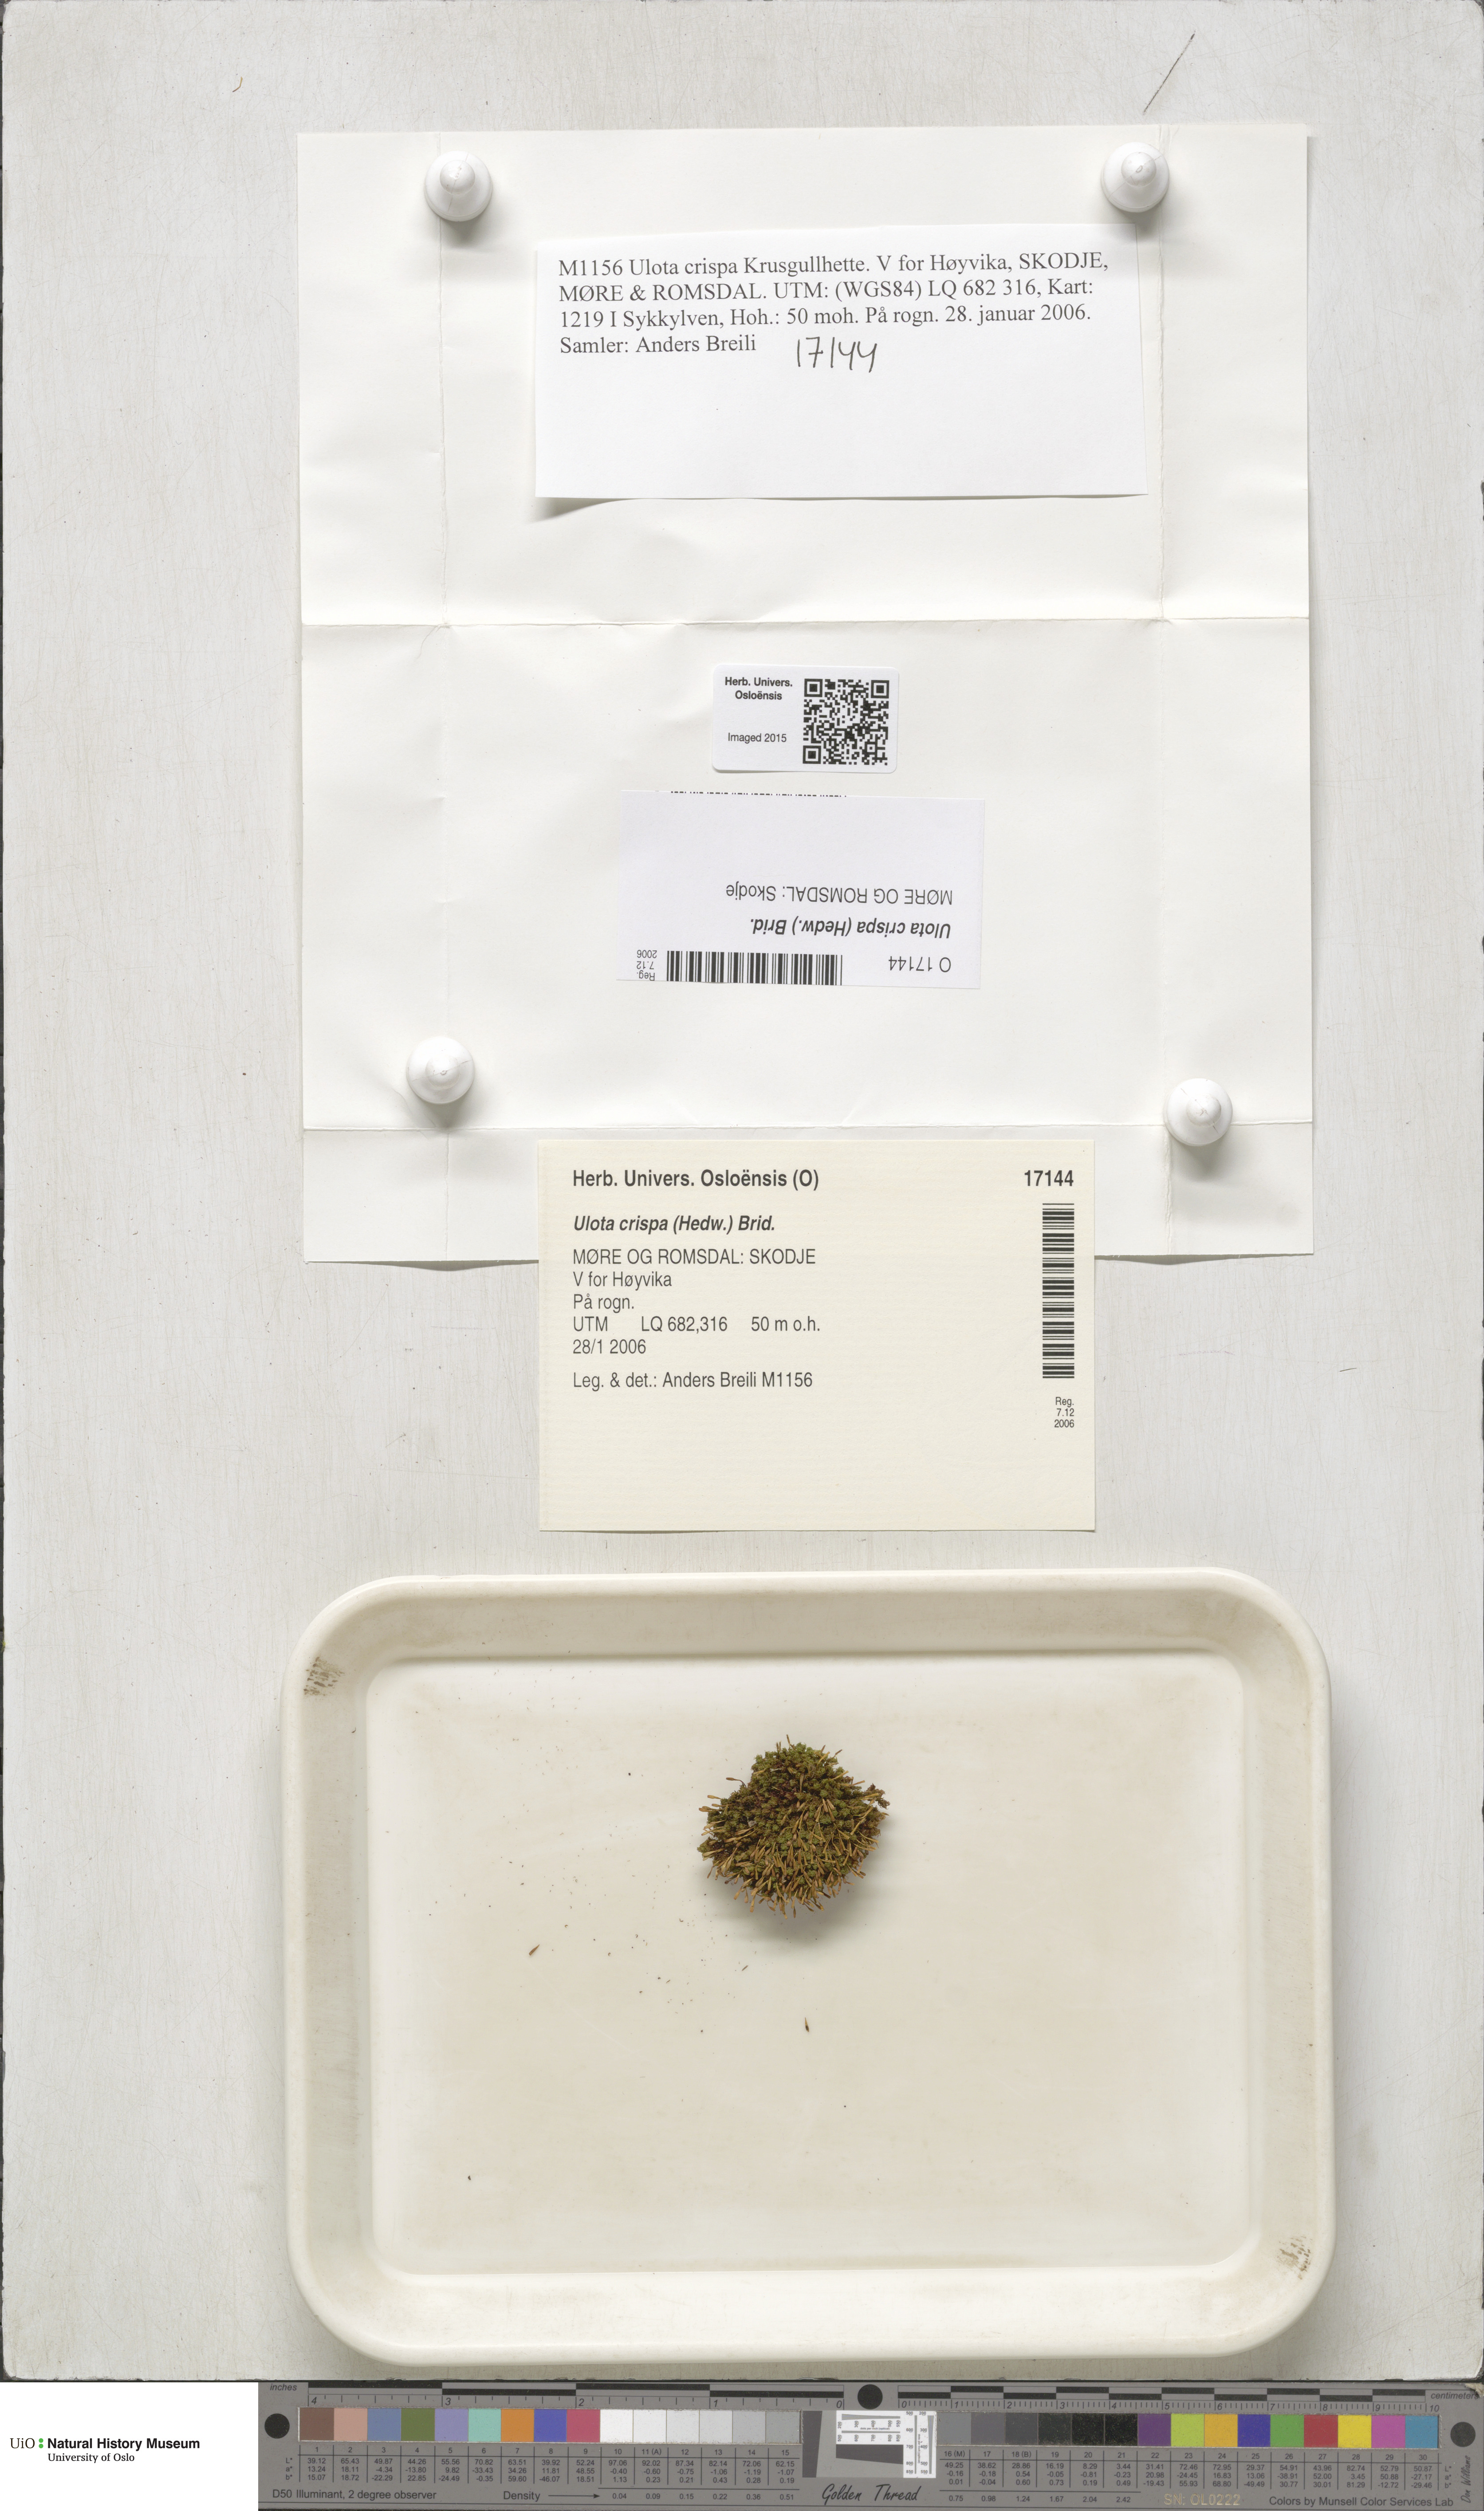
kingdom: Plantae
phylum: Bryophyta
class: Bryopsida
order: Orthotrichales
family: Orthotrichaceae
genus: Ulota
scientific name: Ulota crispa
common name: Crisped pincushion moss
